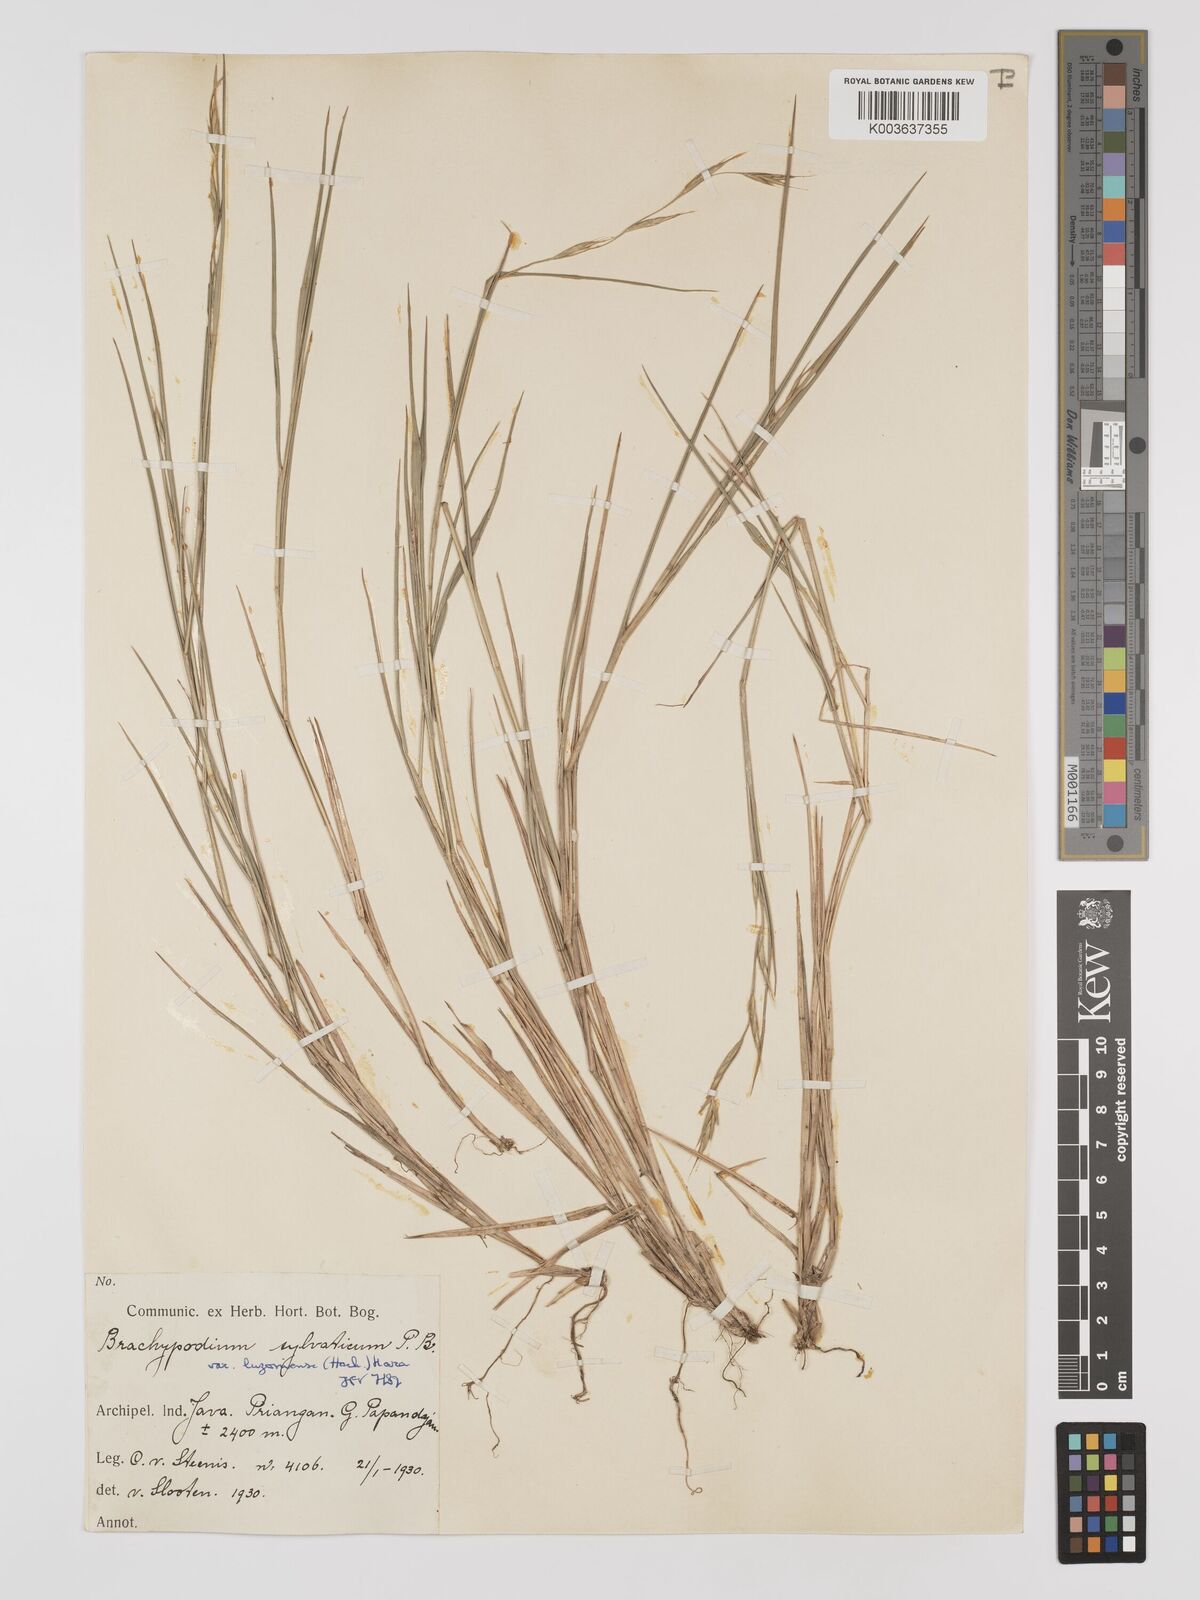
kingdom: Plantae
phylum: Tracheophyta
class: Liliopsida
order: Poales
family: Poaceae
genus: Brachypodium
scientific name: Brachypodium sylvaticum
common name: False-brome
